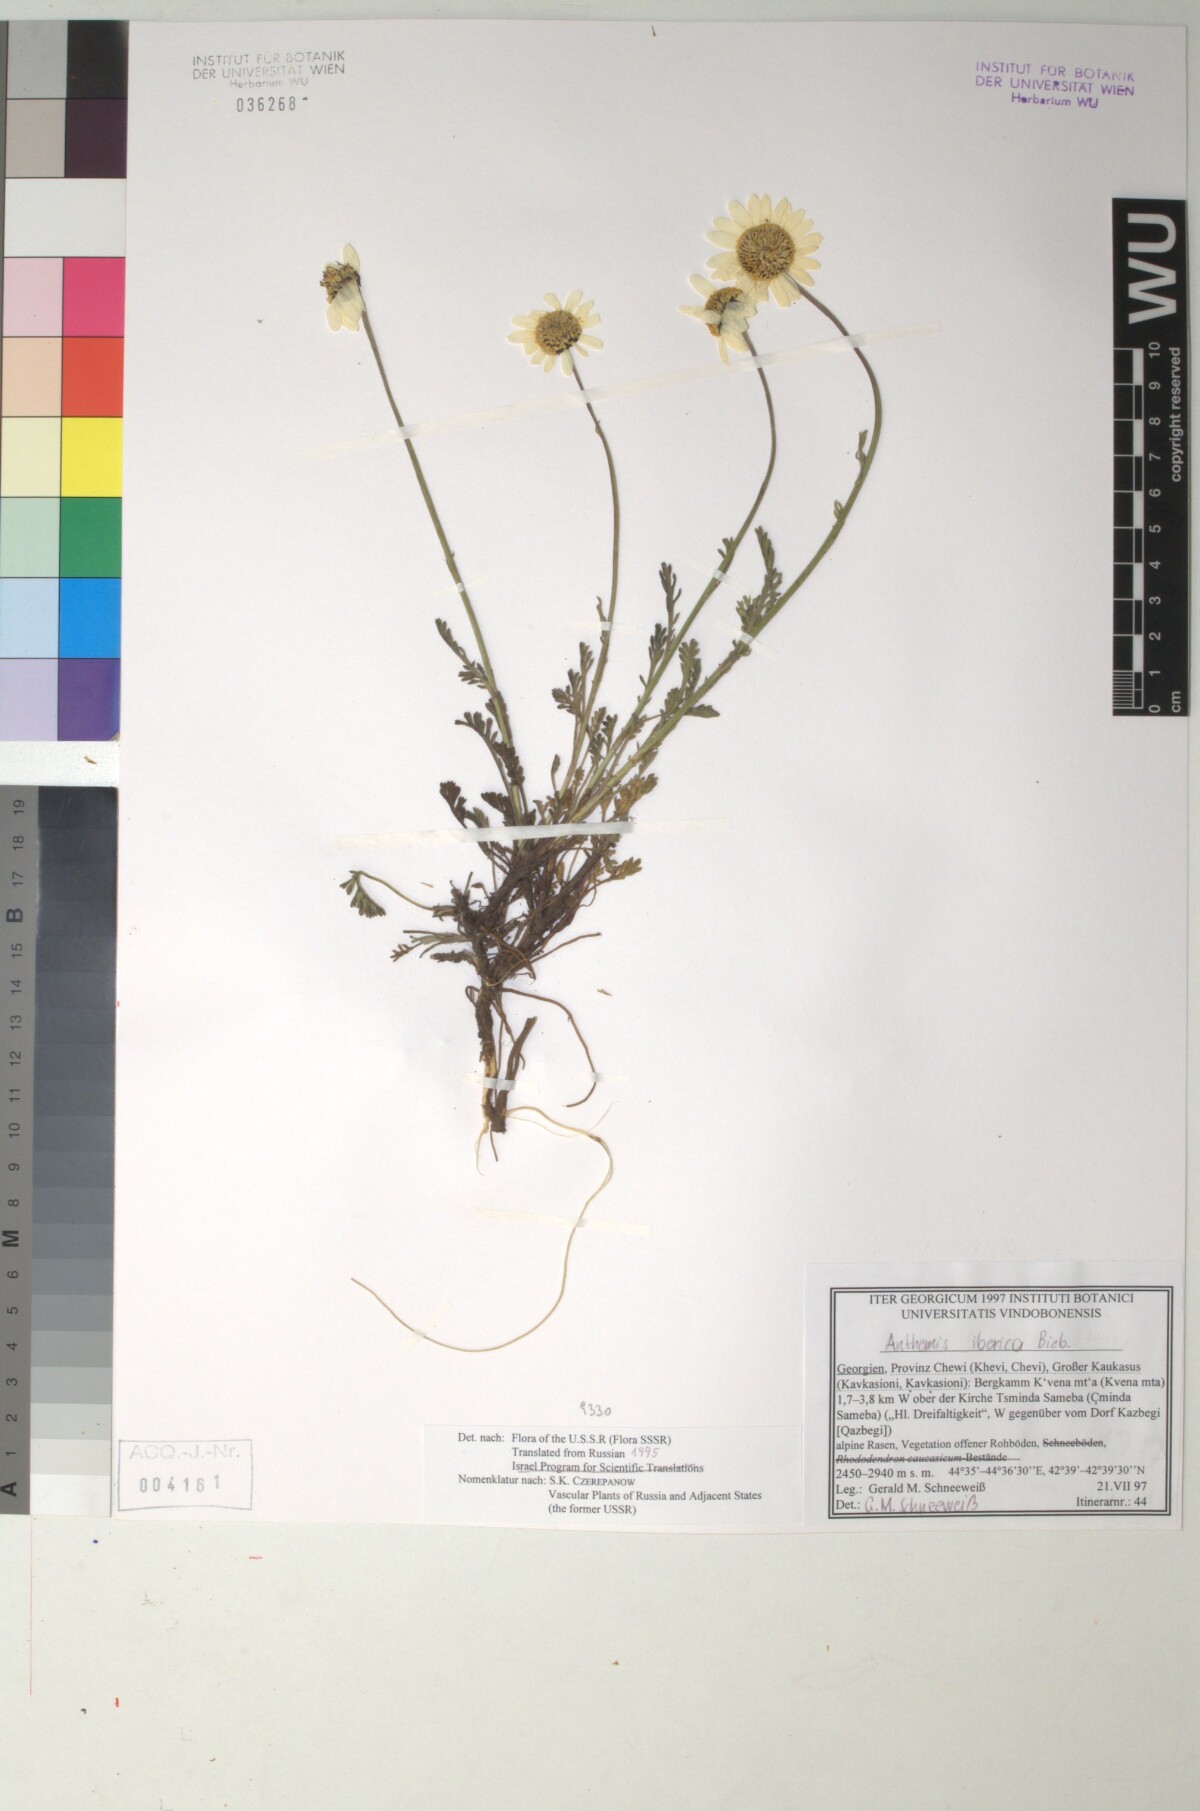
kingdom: Plantae
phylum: Tracheophyta
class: Magnoliopsida
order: Asterales
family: Asteraceae
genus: Anthemis
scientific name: Anthemis cretica
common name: Mountain dog-daisy
